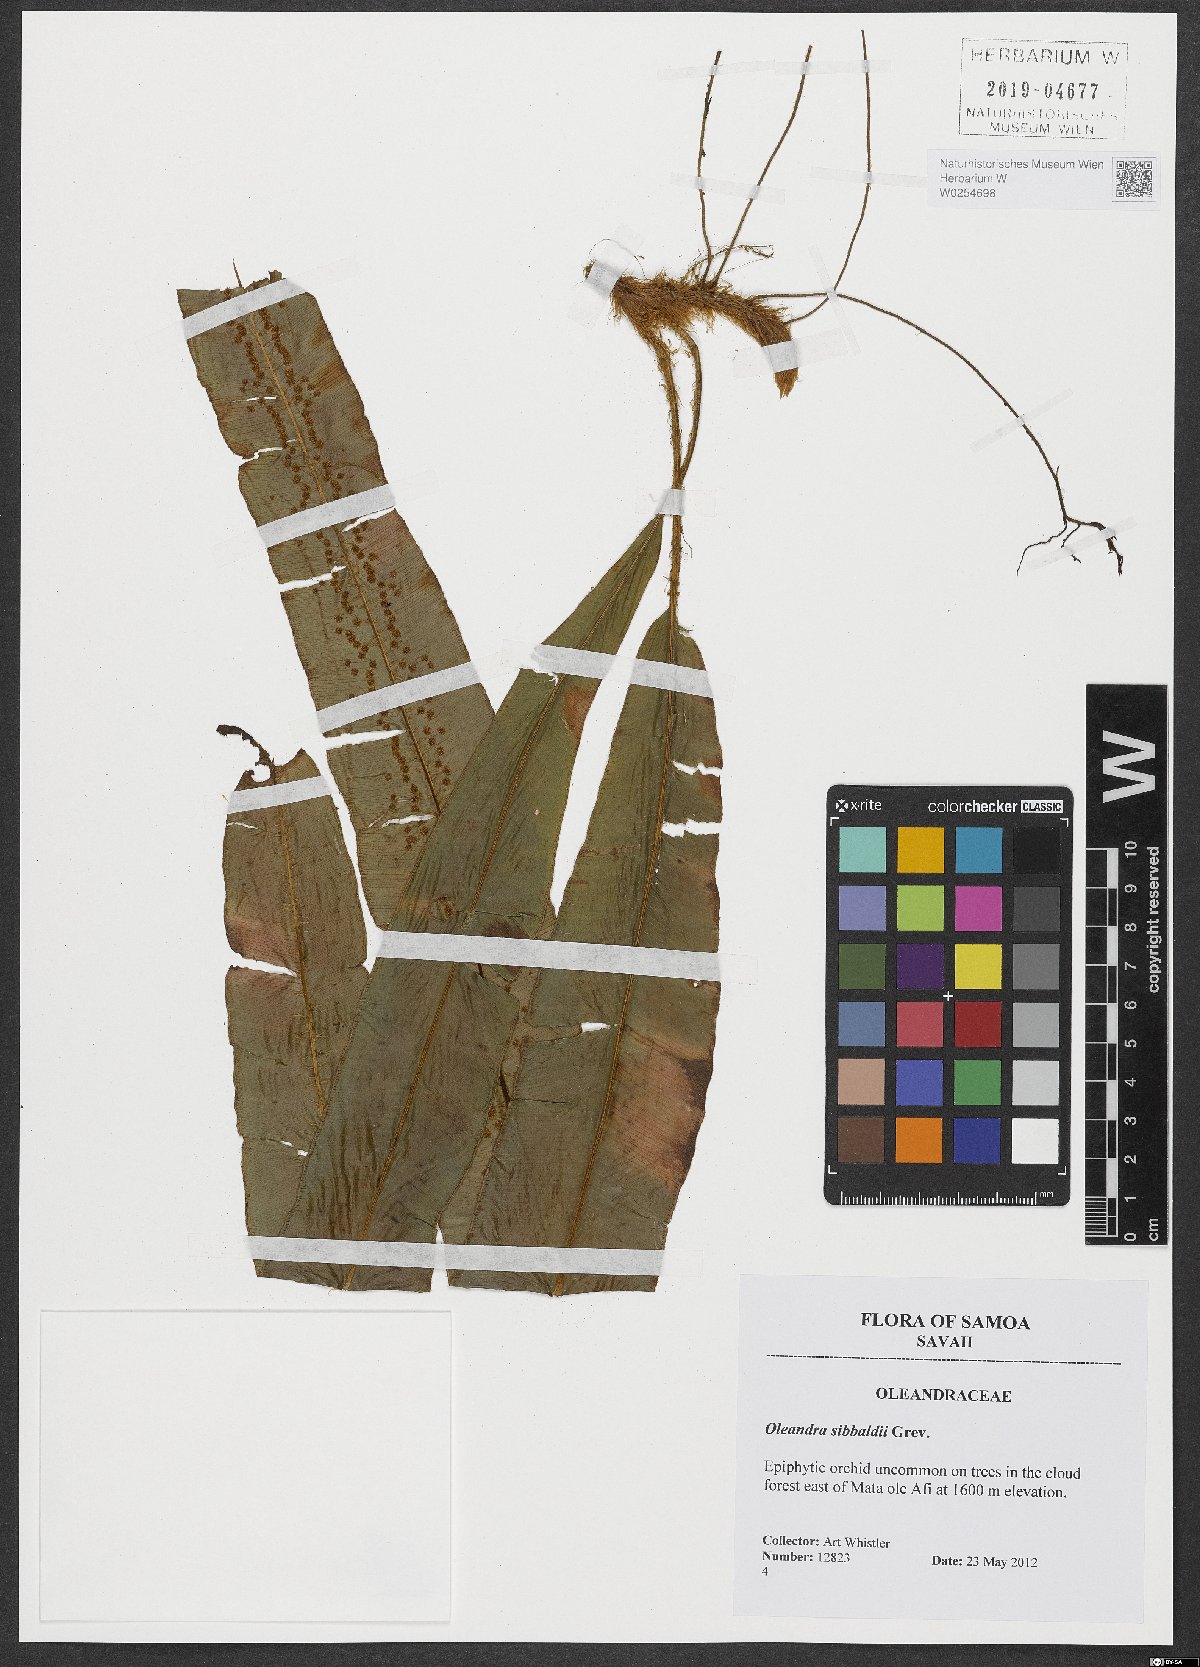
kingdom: Plantae
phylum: Tracheophyta
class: Polypodiopsida
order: Polypodiales
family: Oleandraceae
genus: Oleandra
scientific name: Oleandra sibbaldii
